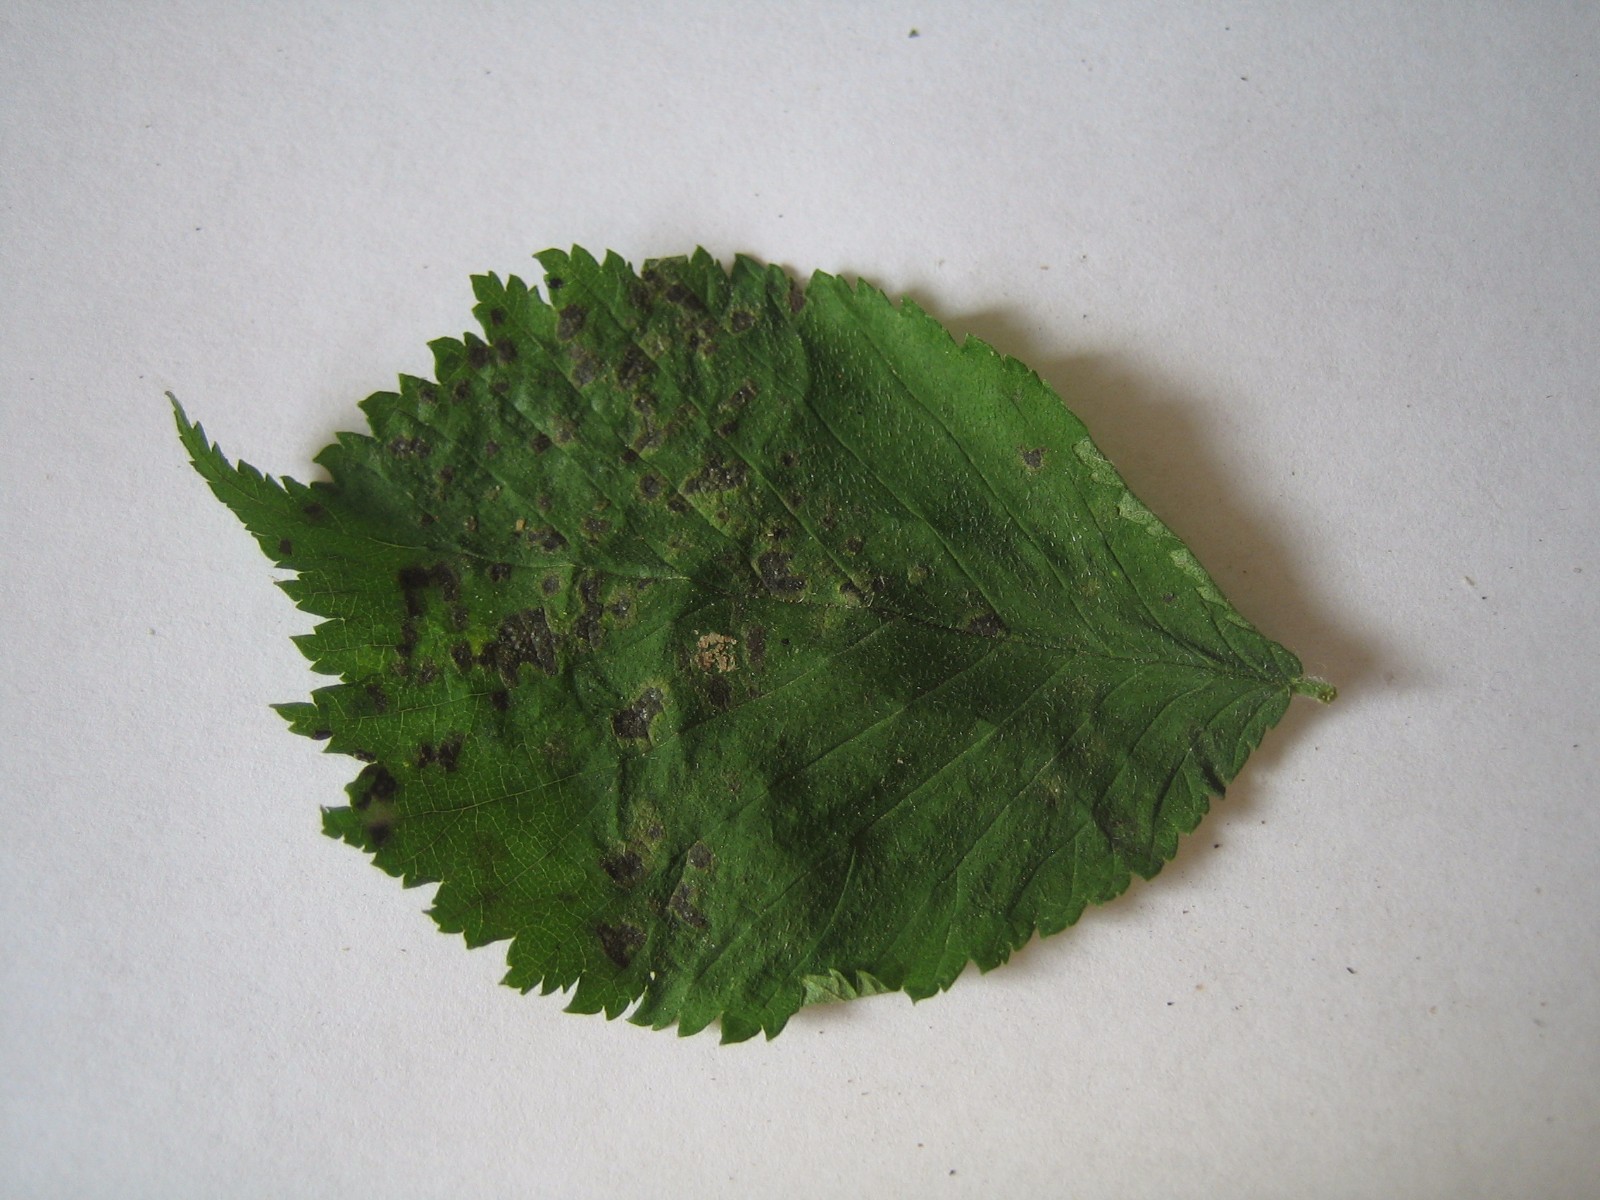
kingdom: Fungi
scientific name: Fungi
